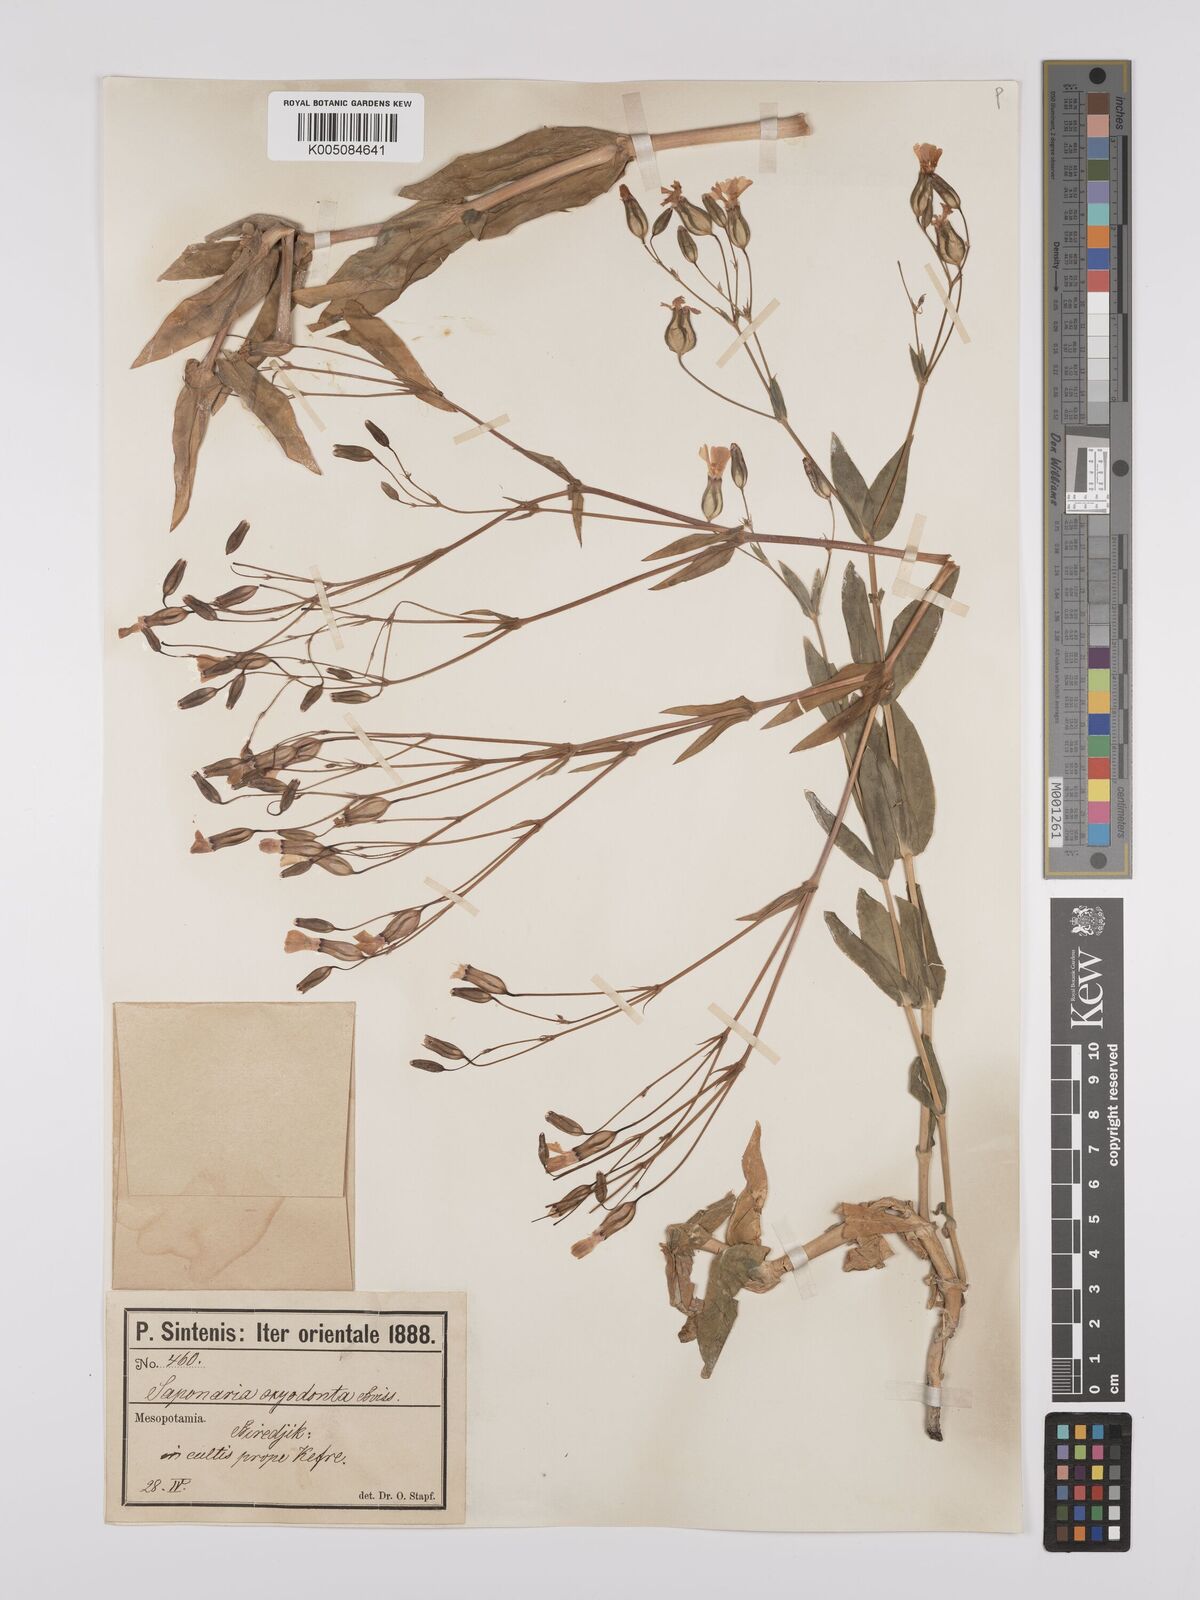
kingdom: Plantae
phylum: Tracheophyta
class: Magnoliopsida
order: Caryophyllales
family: Caryophyllaceae
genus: Gypsophila
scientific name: Gypsophila vaccaria
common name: Cow soapwort
